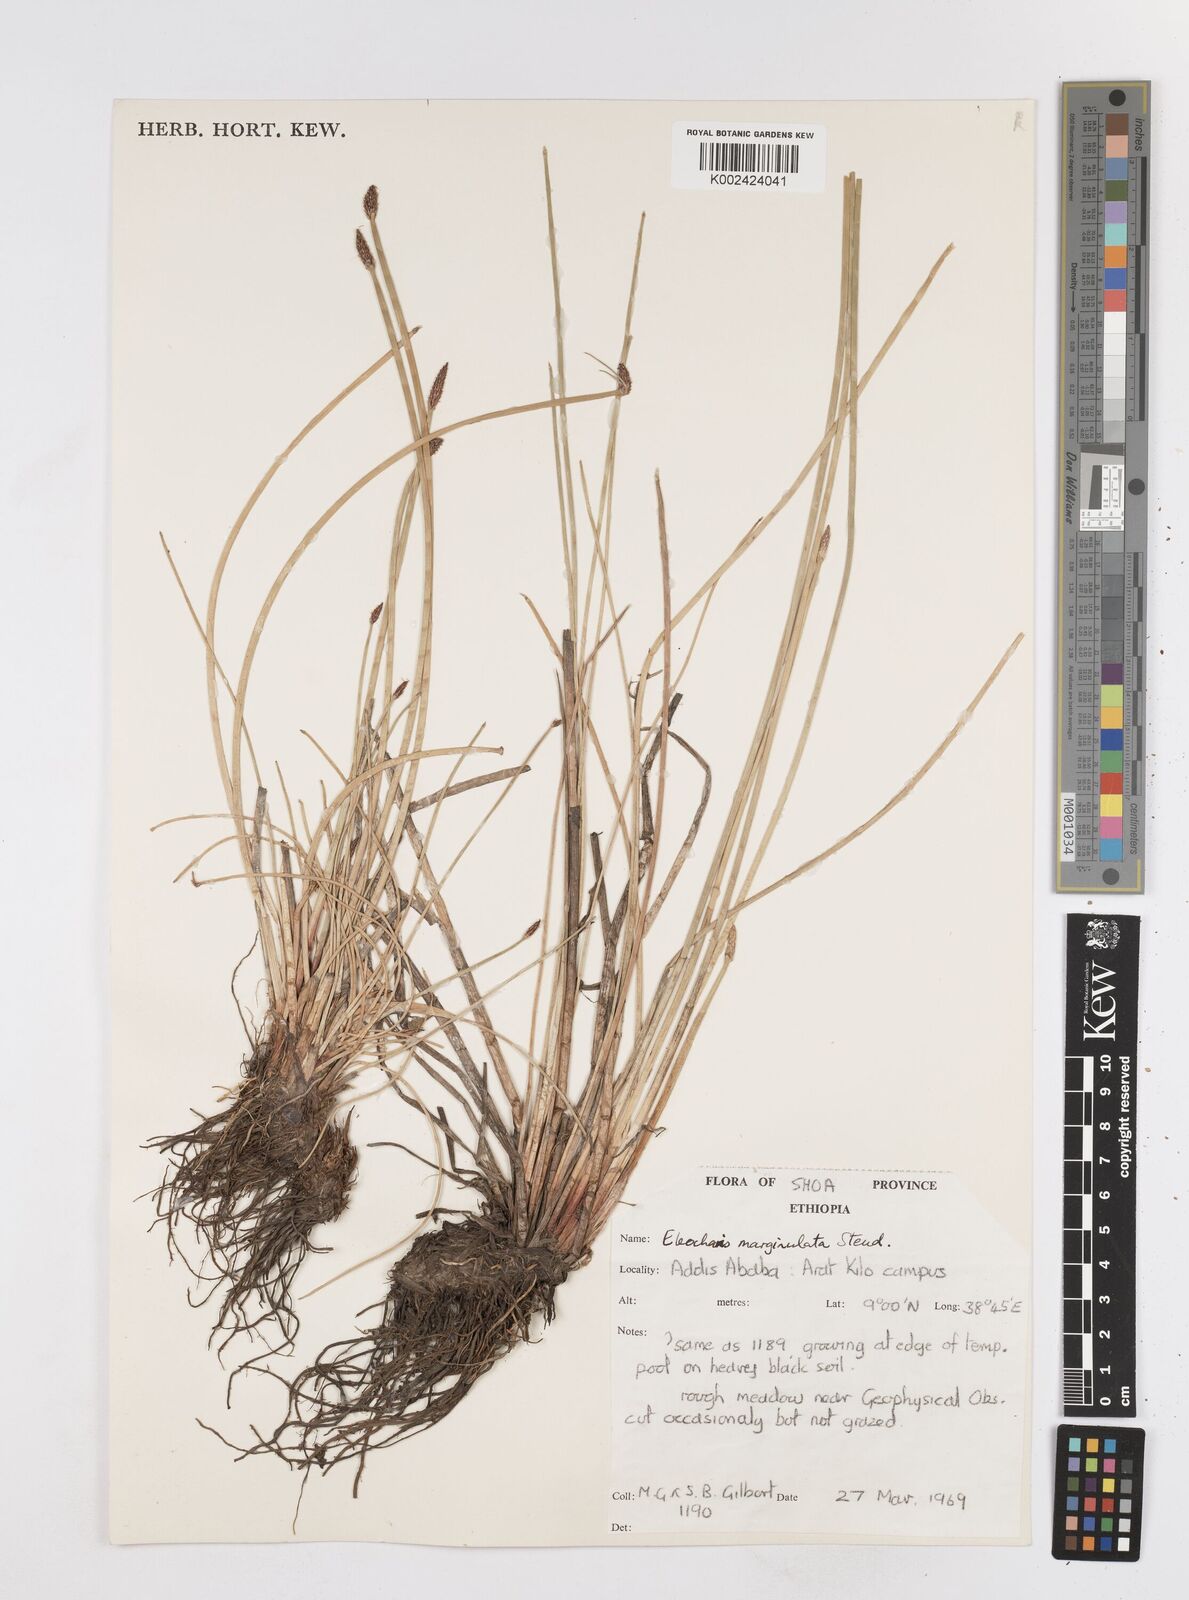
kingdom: Plantae
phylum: Tracheophyta
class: Liliopsida
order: Poales
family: Cyperaceae
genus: Eleocharis
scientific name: Eleocharis marginulata
